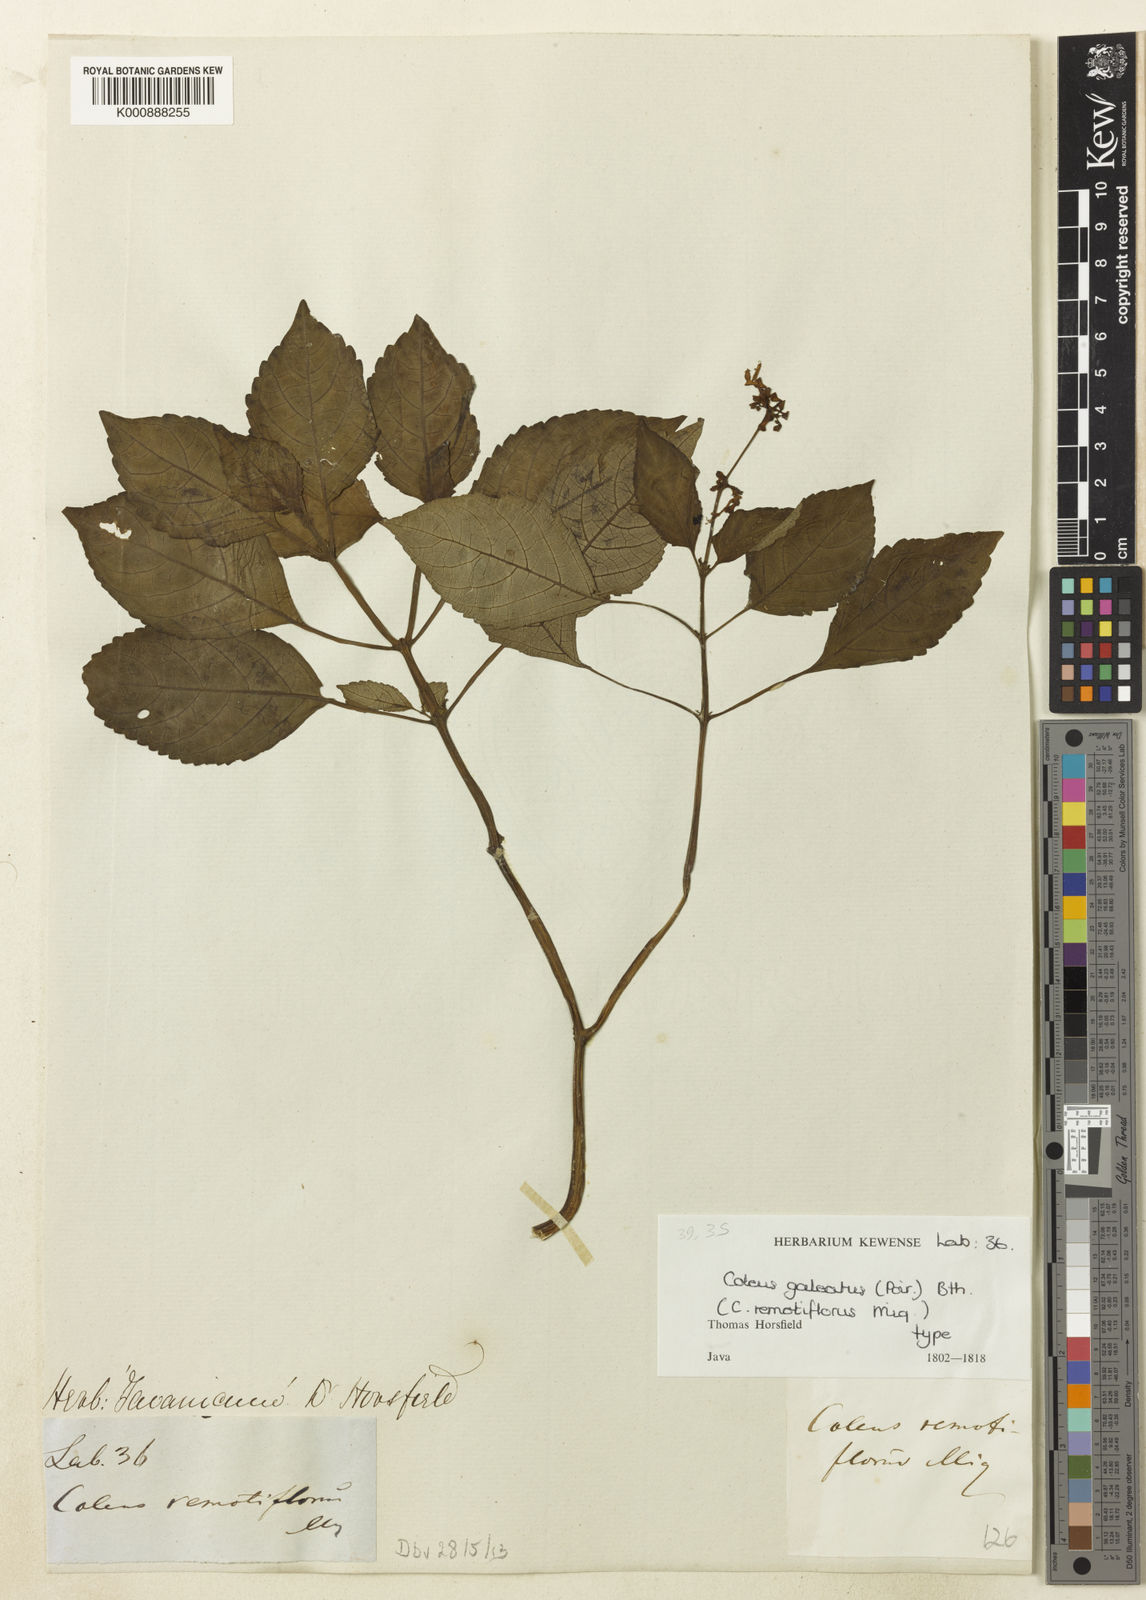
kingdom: Plantae
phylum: Tracheophyta
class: Magnoliopsida
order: Lamiales
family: Lamiaceae
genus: Coleus
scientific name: Coleus galeatus
